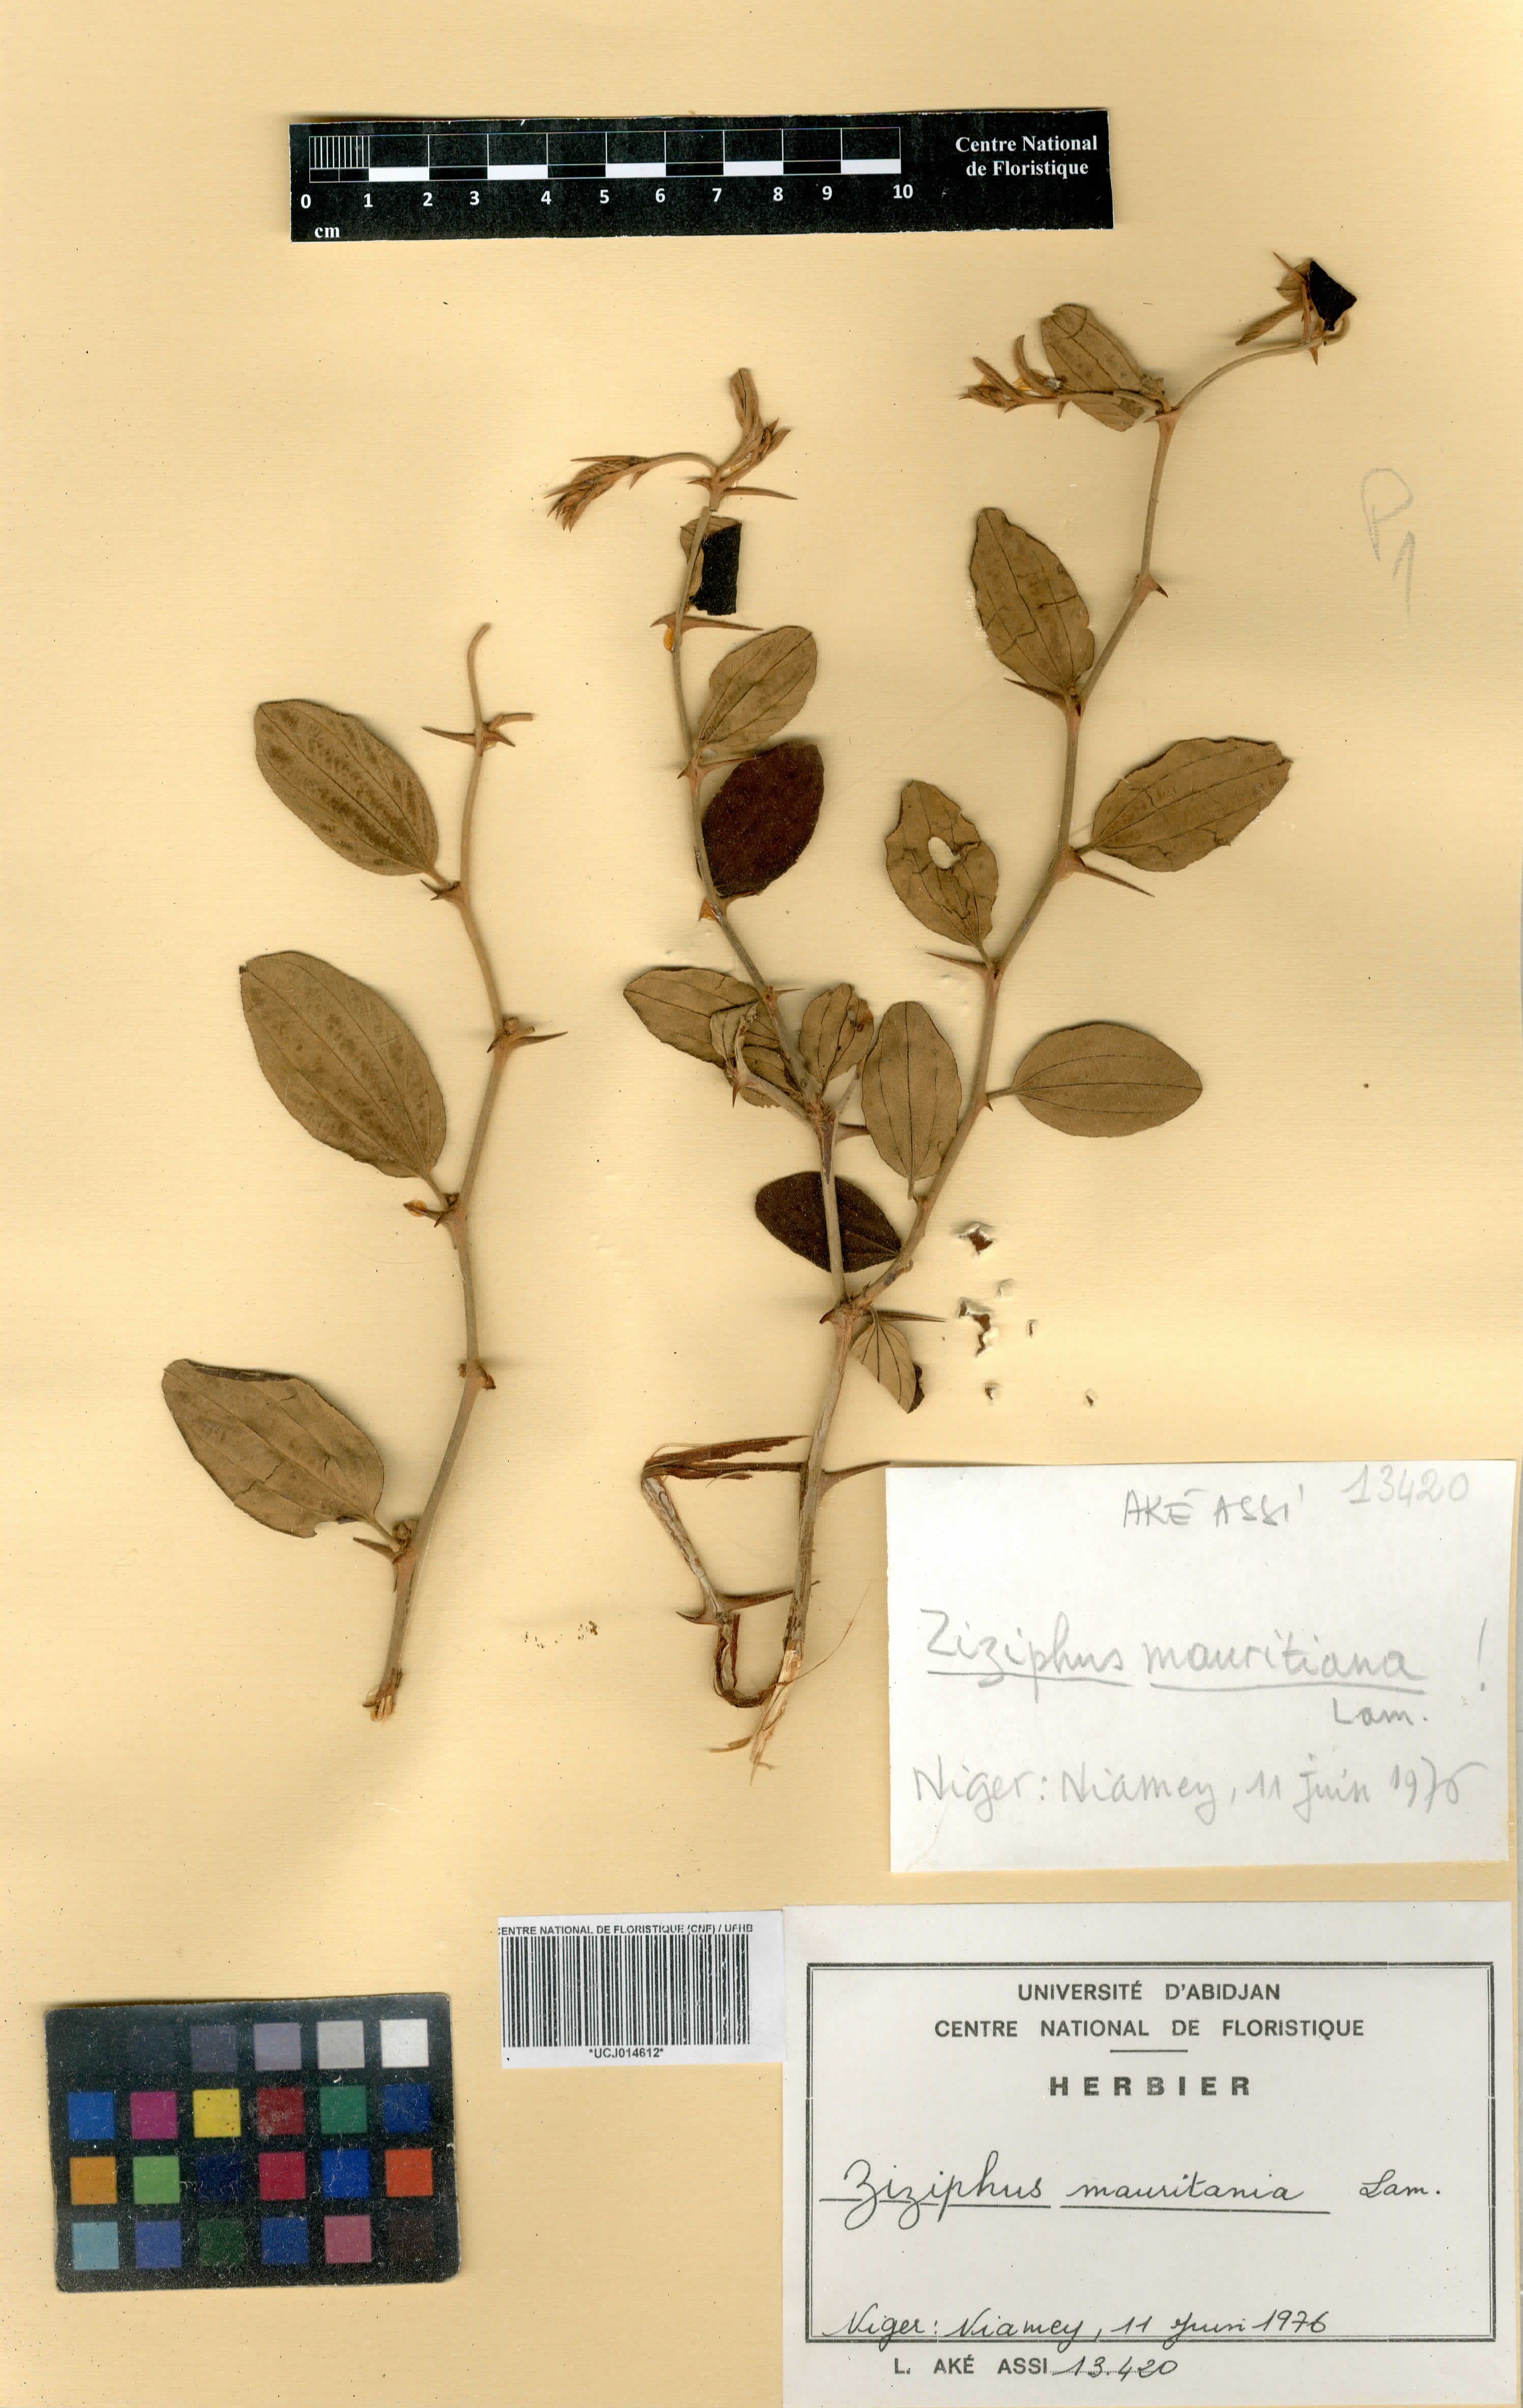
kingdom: Plantae
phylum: Tracheophyta
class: Magnoliopsida
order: Rosales
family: Rhamnaceae
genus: Ziziphus
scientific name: Ziziphus mauritiana
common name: Indian jujube
